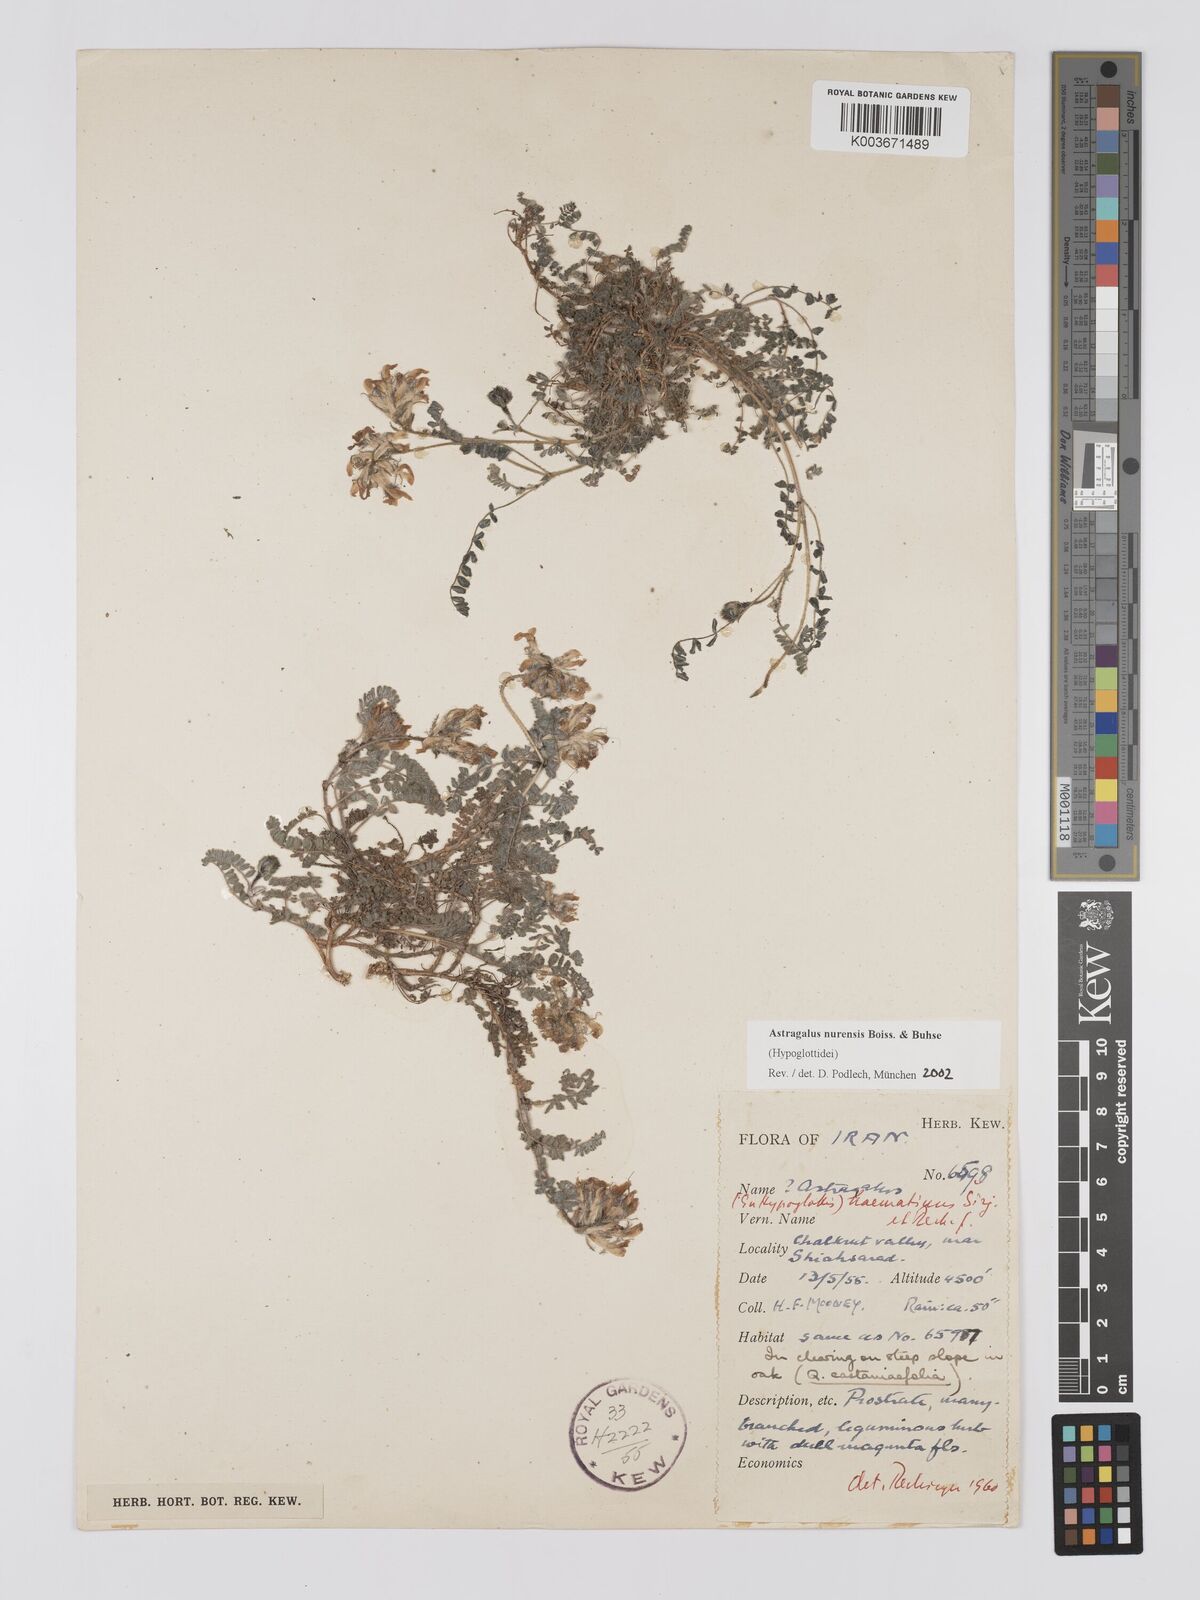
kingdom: Plantae
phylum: Tracheophyta
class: Magnoliopsida
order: Fabales
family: Fabaceae
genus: Astragalus
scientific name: Astragalus nurensis
